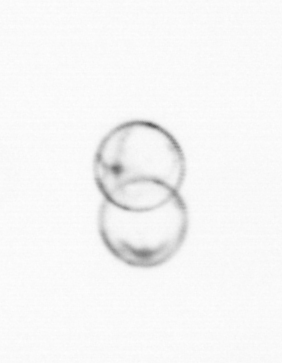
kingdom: Chromista
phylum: Myzozoa
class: Dinophyceae
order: Noctilucales
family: Noctilucaceae
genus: Noctiluca
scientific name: Noctiluca scintillans
